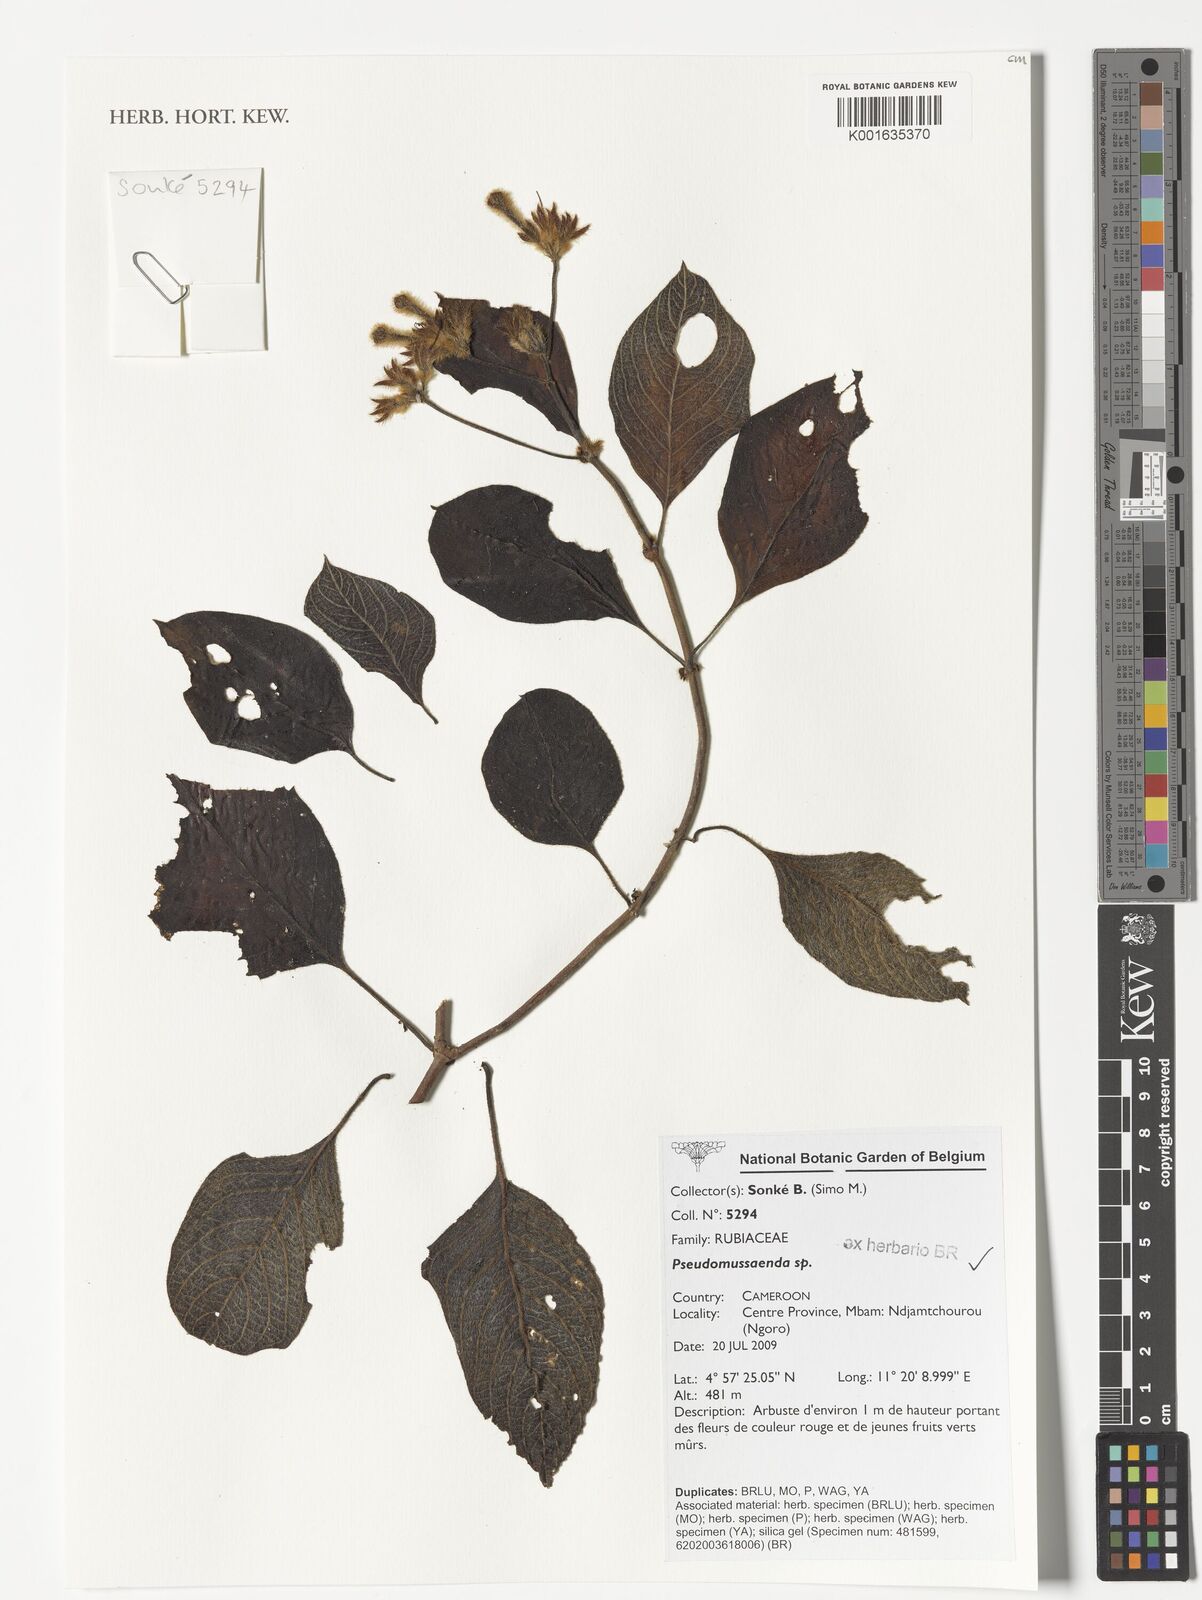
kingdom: Plantae
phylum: Tracheophyta
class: Magnoliopsida
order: Gentianales
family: Rubiaceae
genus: Pseudomussaenda
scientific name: Pseudomussaenda
